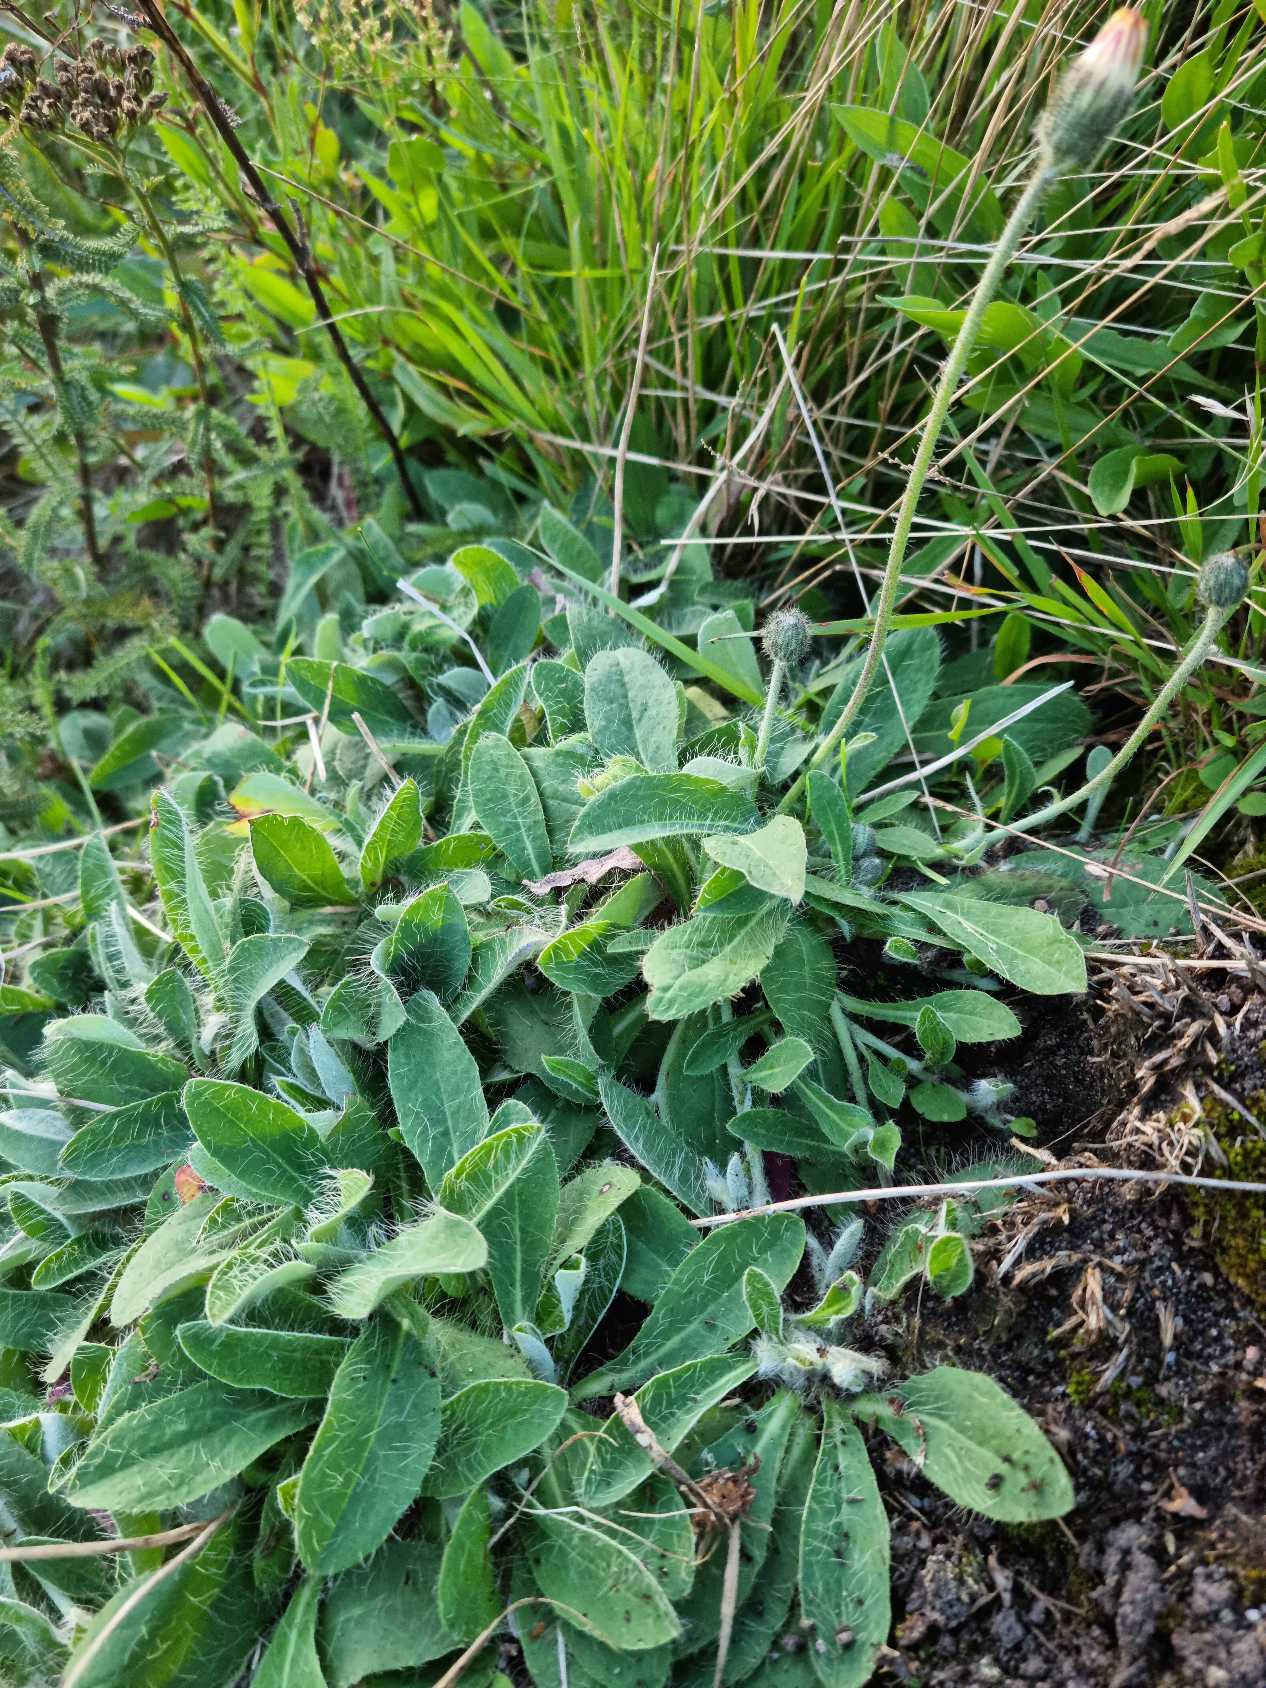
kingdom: Plantae
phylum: Tracheophyta
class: Magnoliopsida
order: Asterales
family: Asteraceae
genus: Pilosella
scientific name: Pilosella officinarum
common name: Håret høgeurt
